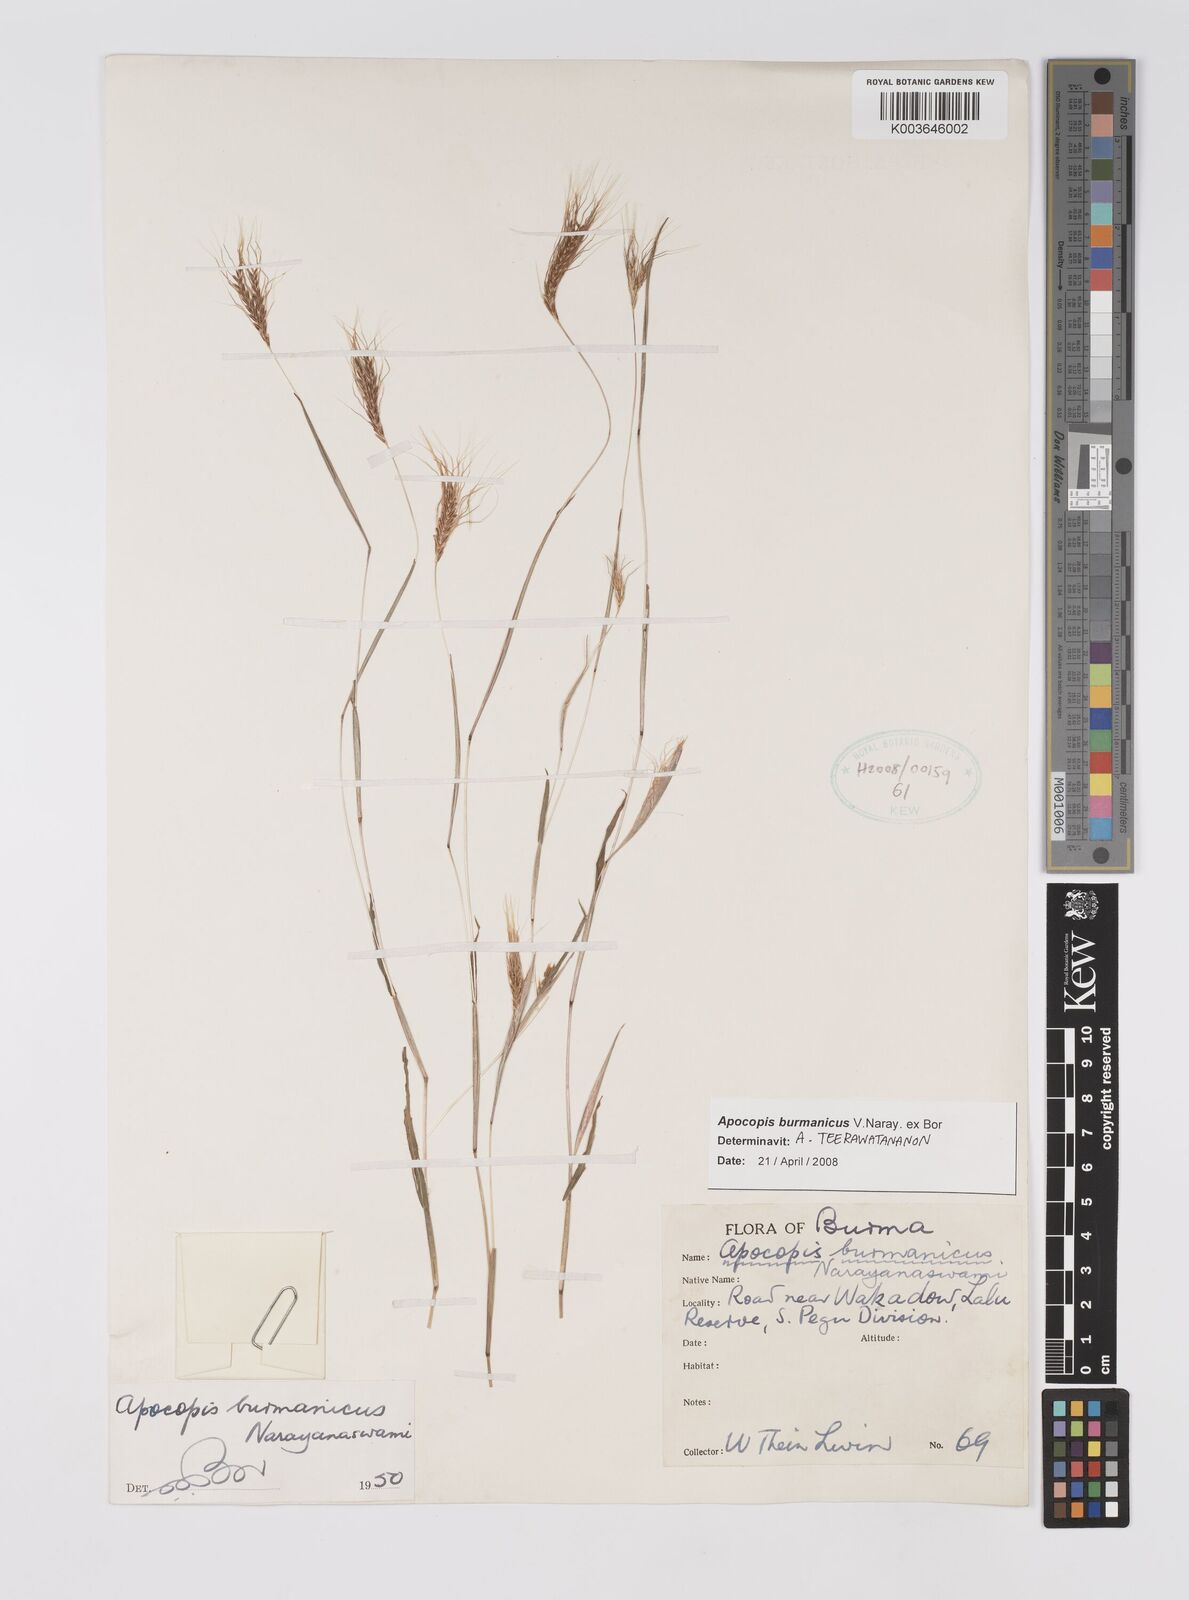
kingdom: Plantae
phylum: Tracheophyta
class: Liliopsida
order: Poales
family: Poaceae
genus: Apocopis
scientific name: Apocopis burmanicus
